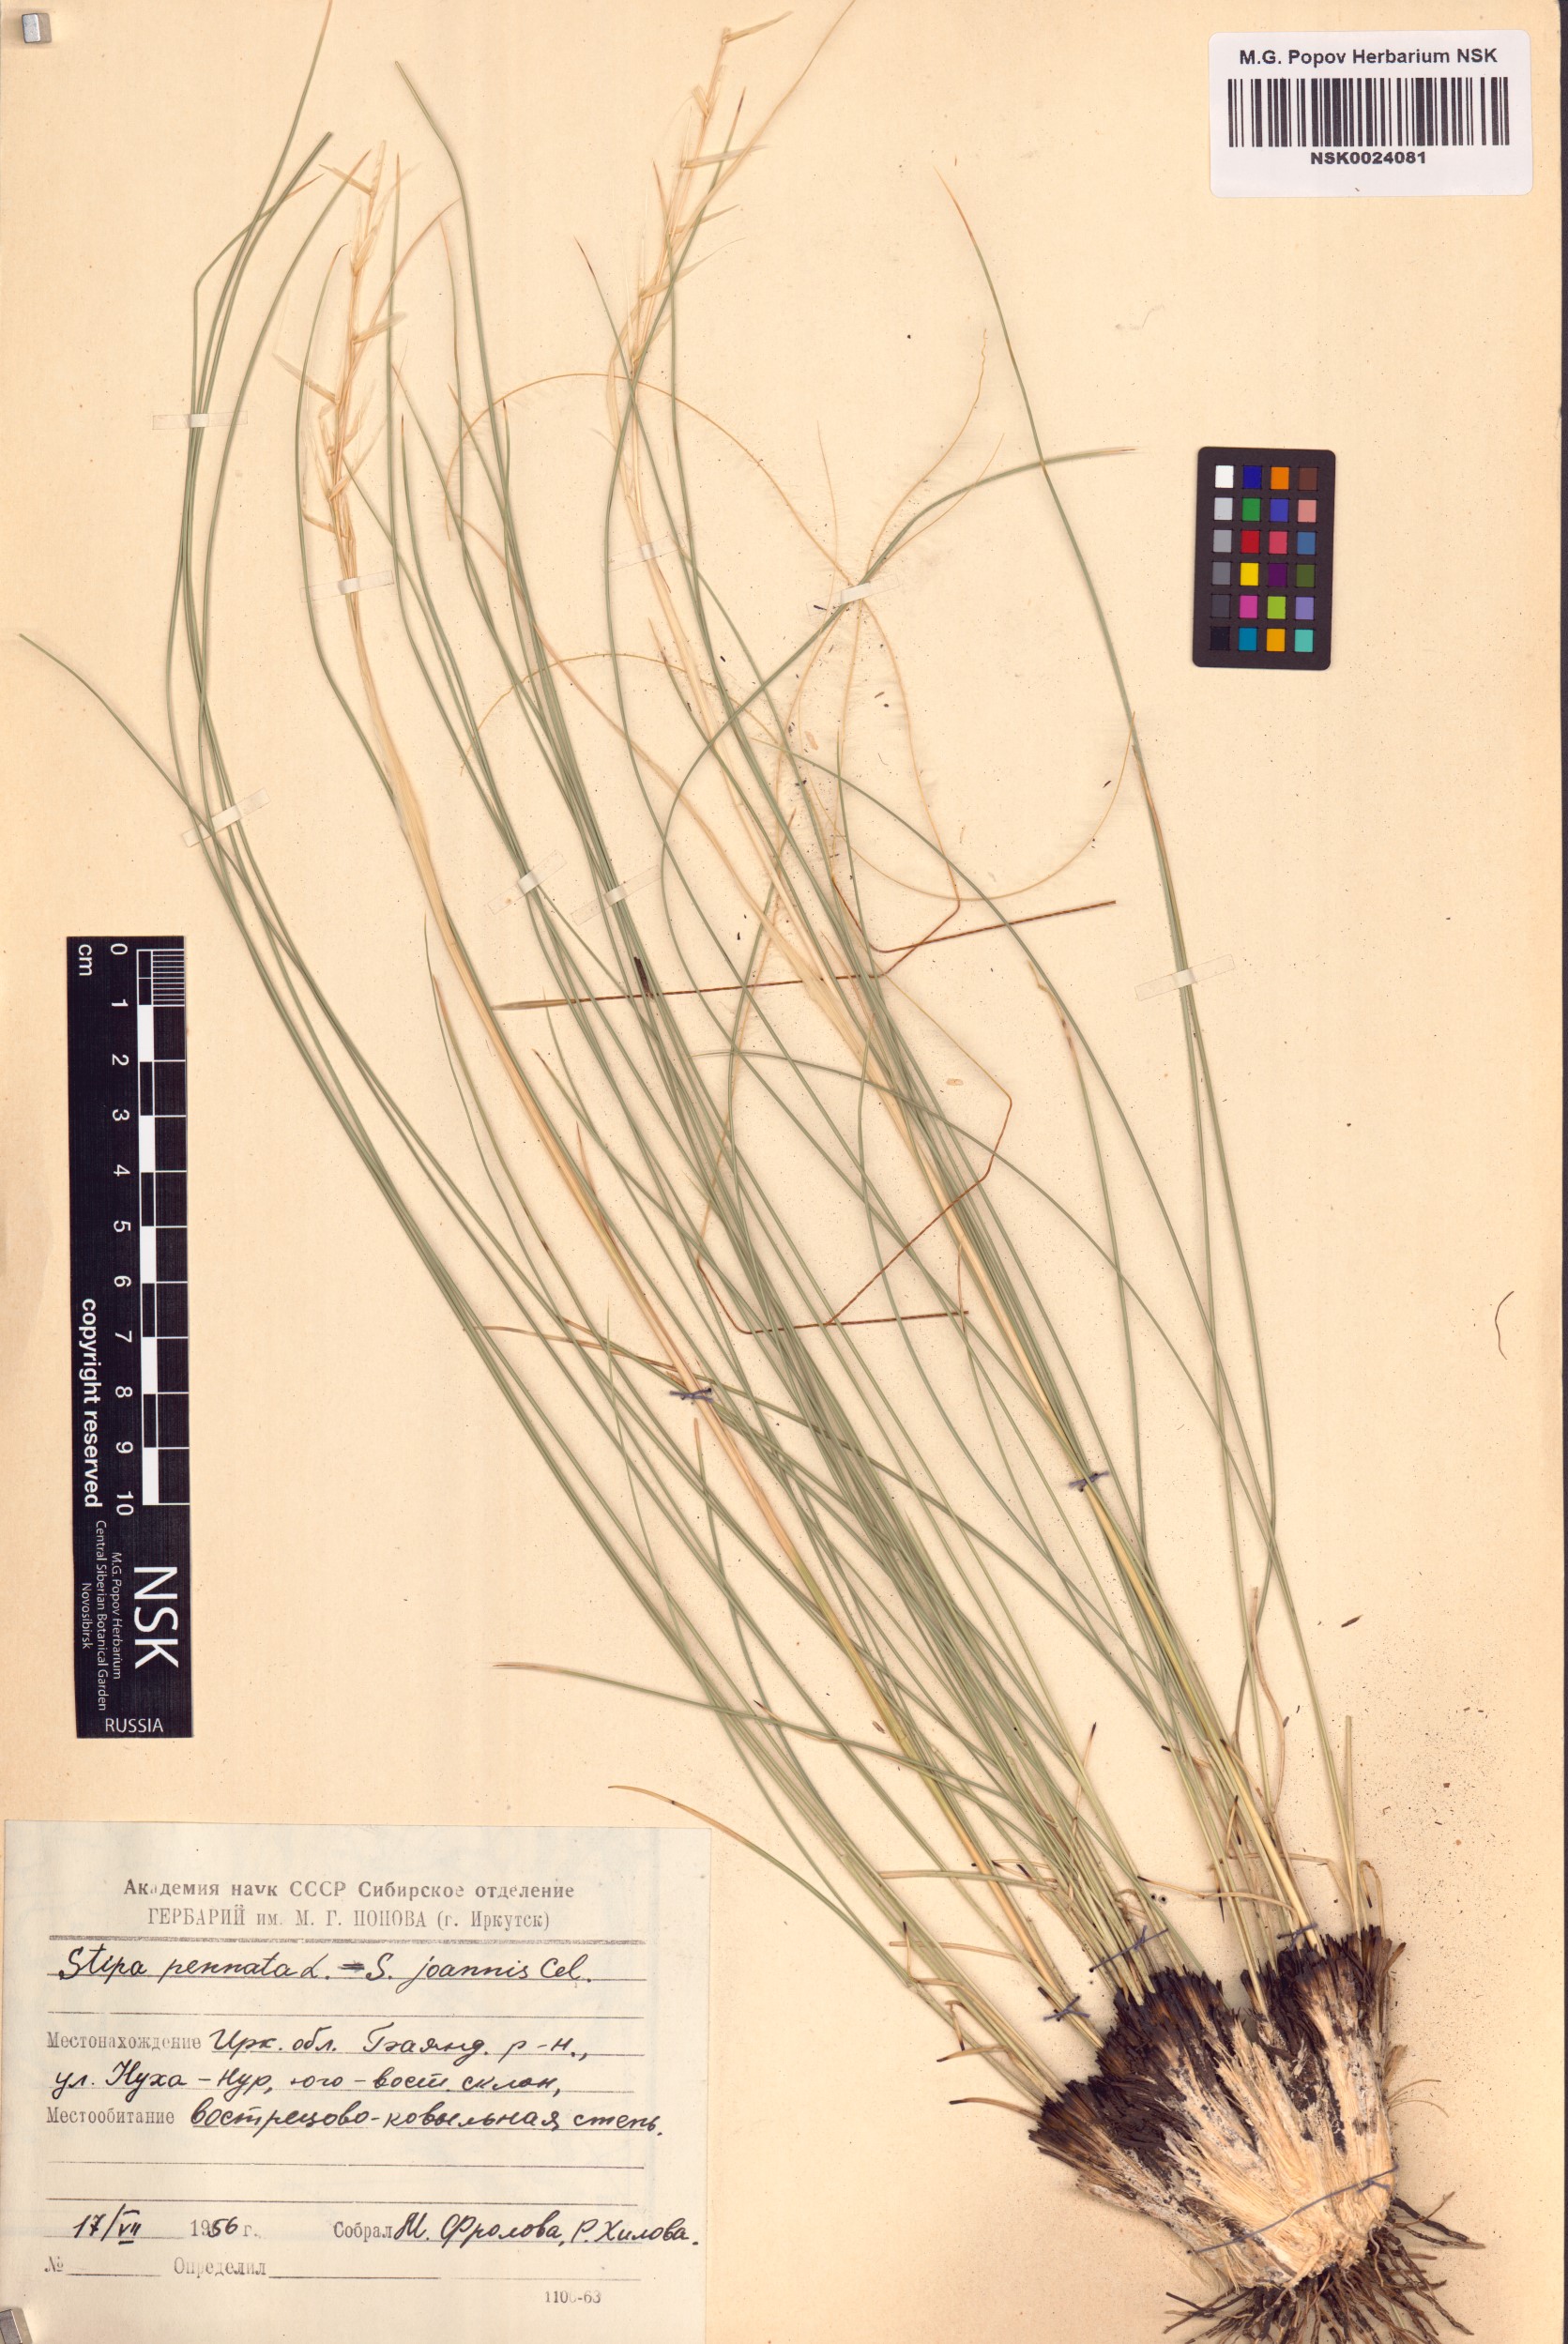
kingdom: Plantae
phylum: Tracheophyta
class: Liliopsida
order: Poales
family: Poaceae
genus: Stipa
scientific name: Stipa pennata
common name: European feather grass
